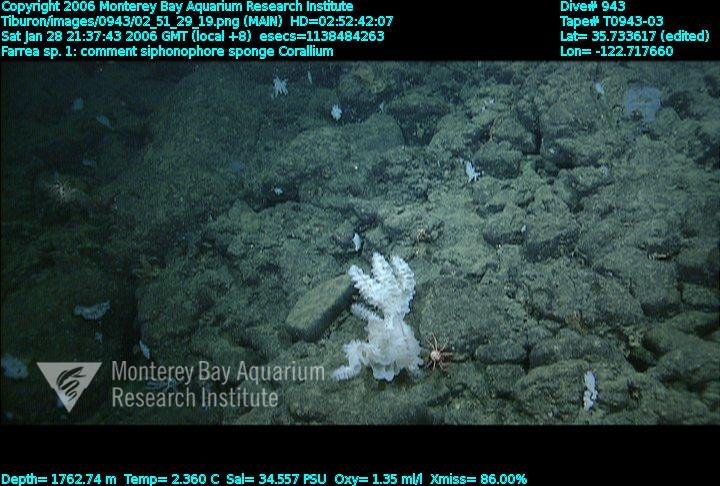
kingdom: Animalia
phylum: Porifera
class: Hexactinellida
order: Sceptrulophora
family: Farreidae
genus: Farrea
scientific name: Farrea truncata
